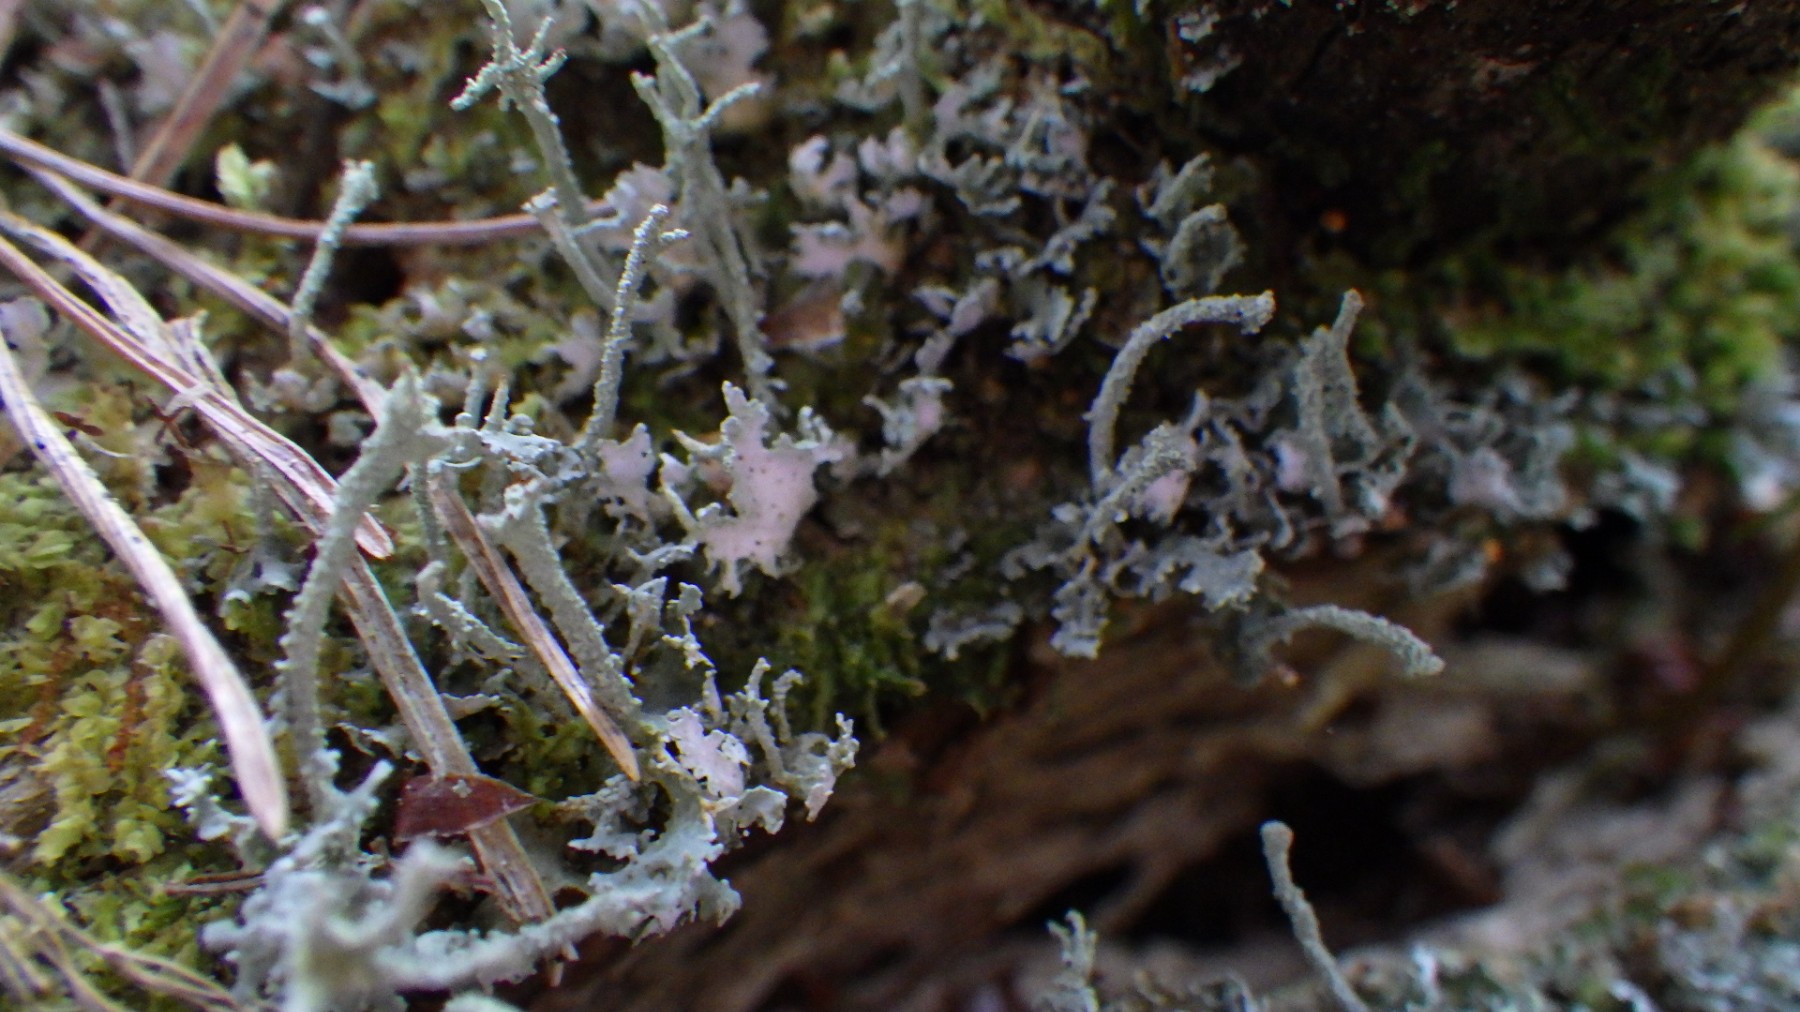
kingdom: Fungi
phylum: Ascomycota
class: Lecanoromycetes
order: Lecanorales
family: Cladoniaceae
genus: Cladonia
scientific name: Cladonia polydactyla
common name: vifte-bægerlav
